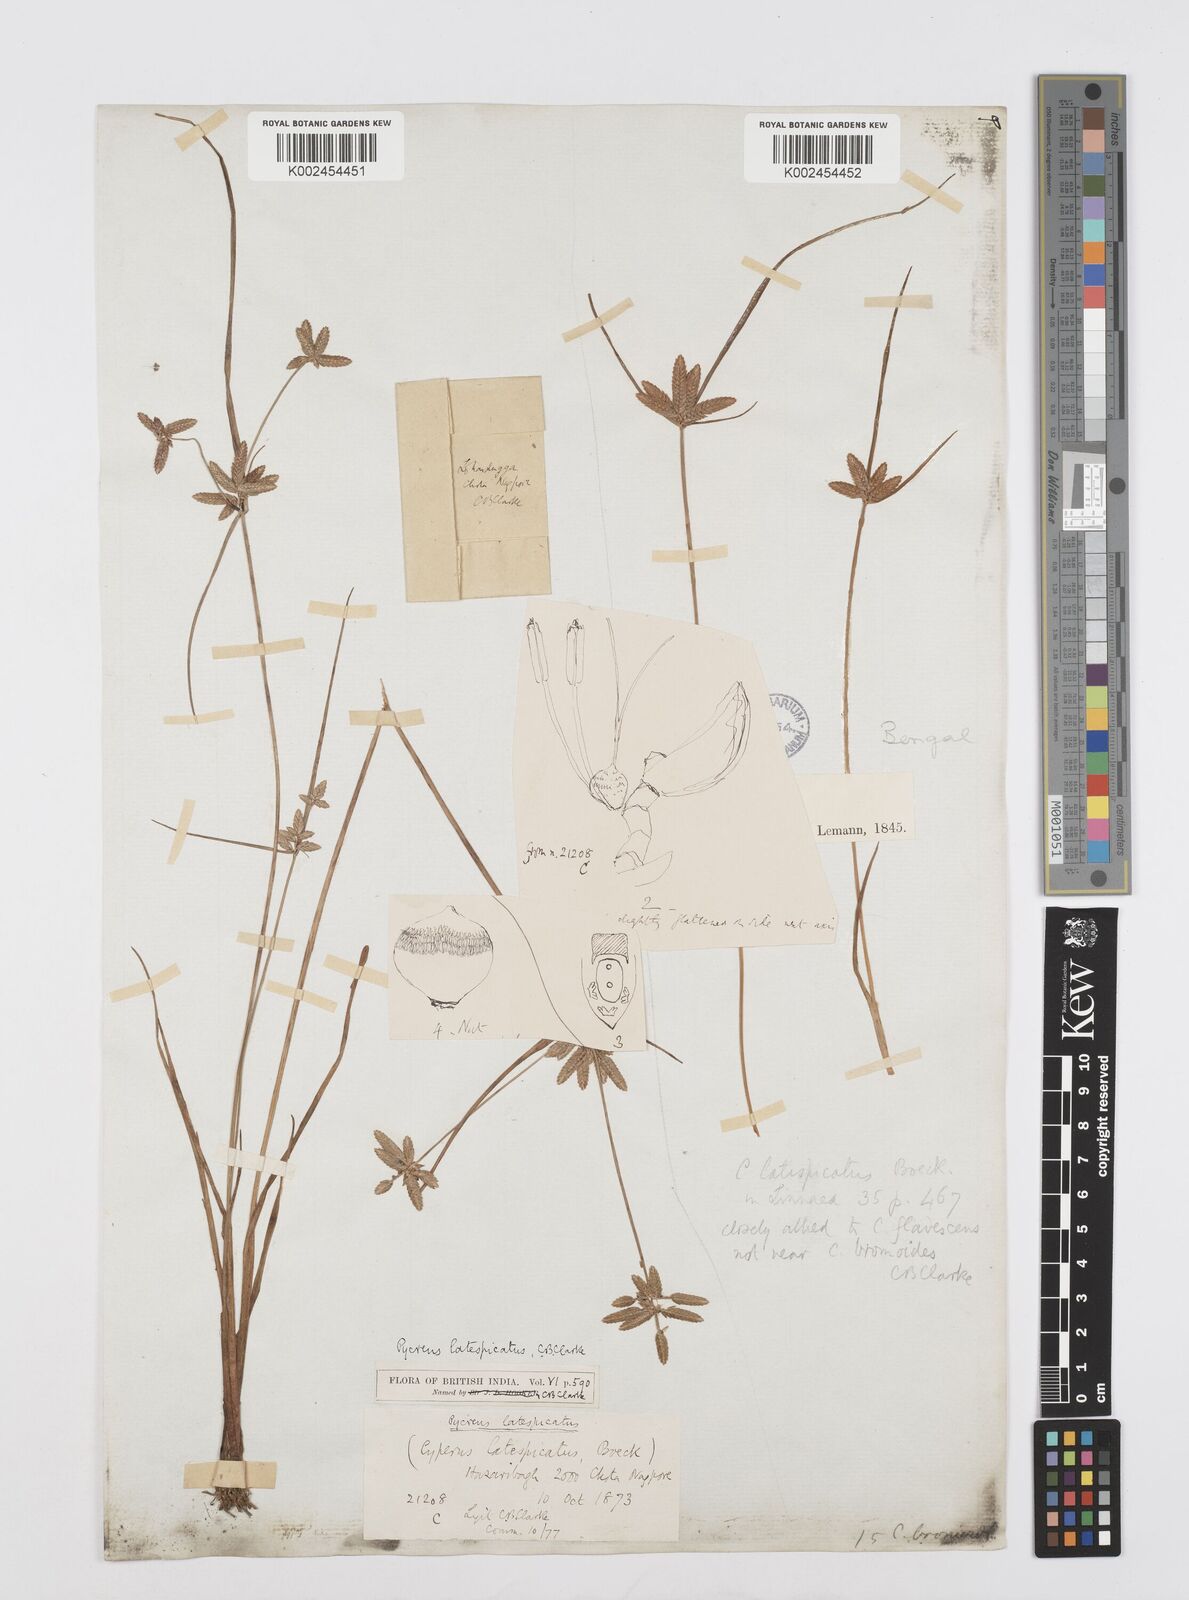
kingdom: Plantae
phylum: Tracheophyta
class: Liliopsida
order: Poales
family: Cyperaceae
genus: Cyperus
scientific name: Cyperus diaphanus
